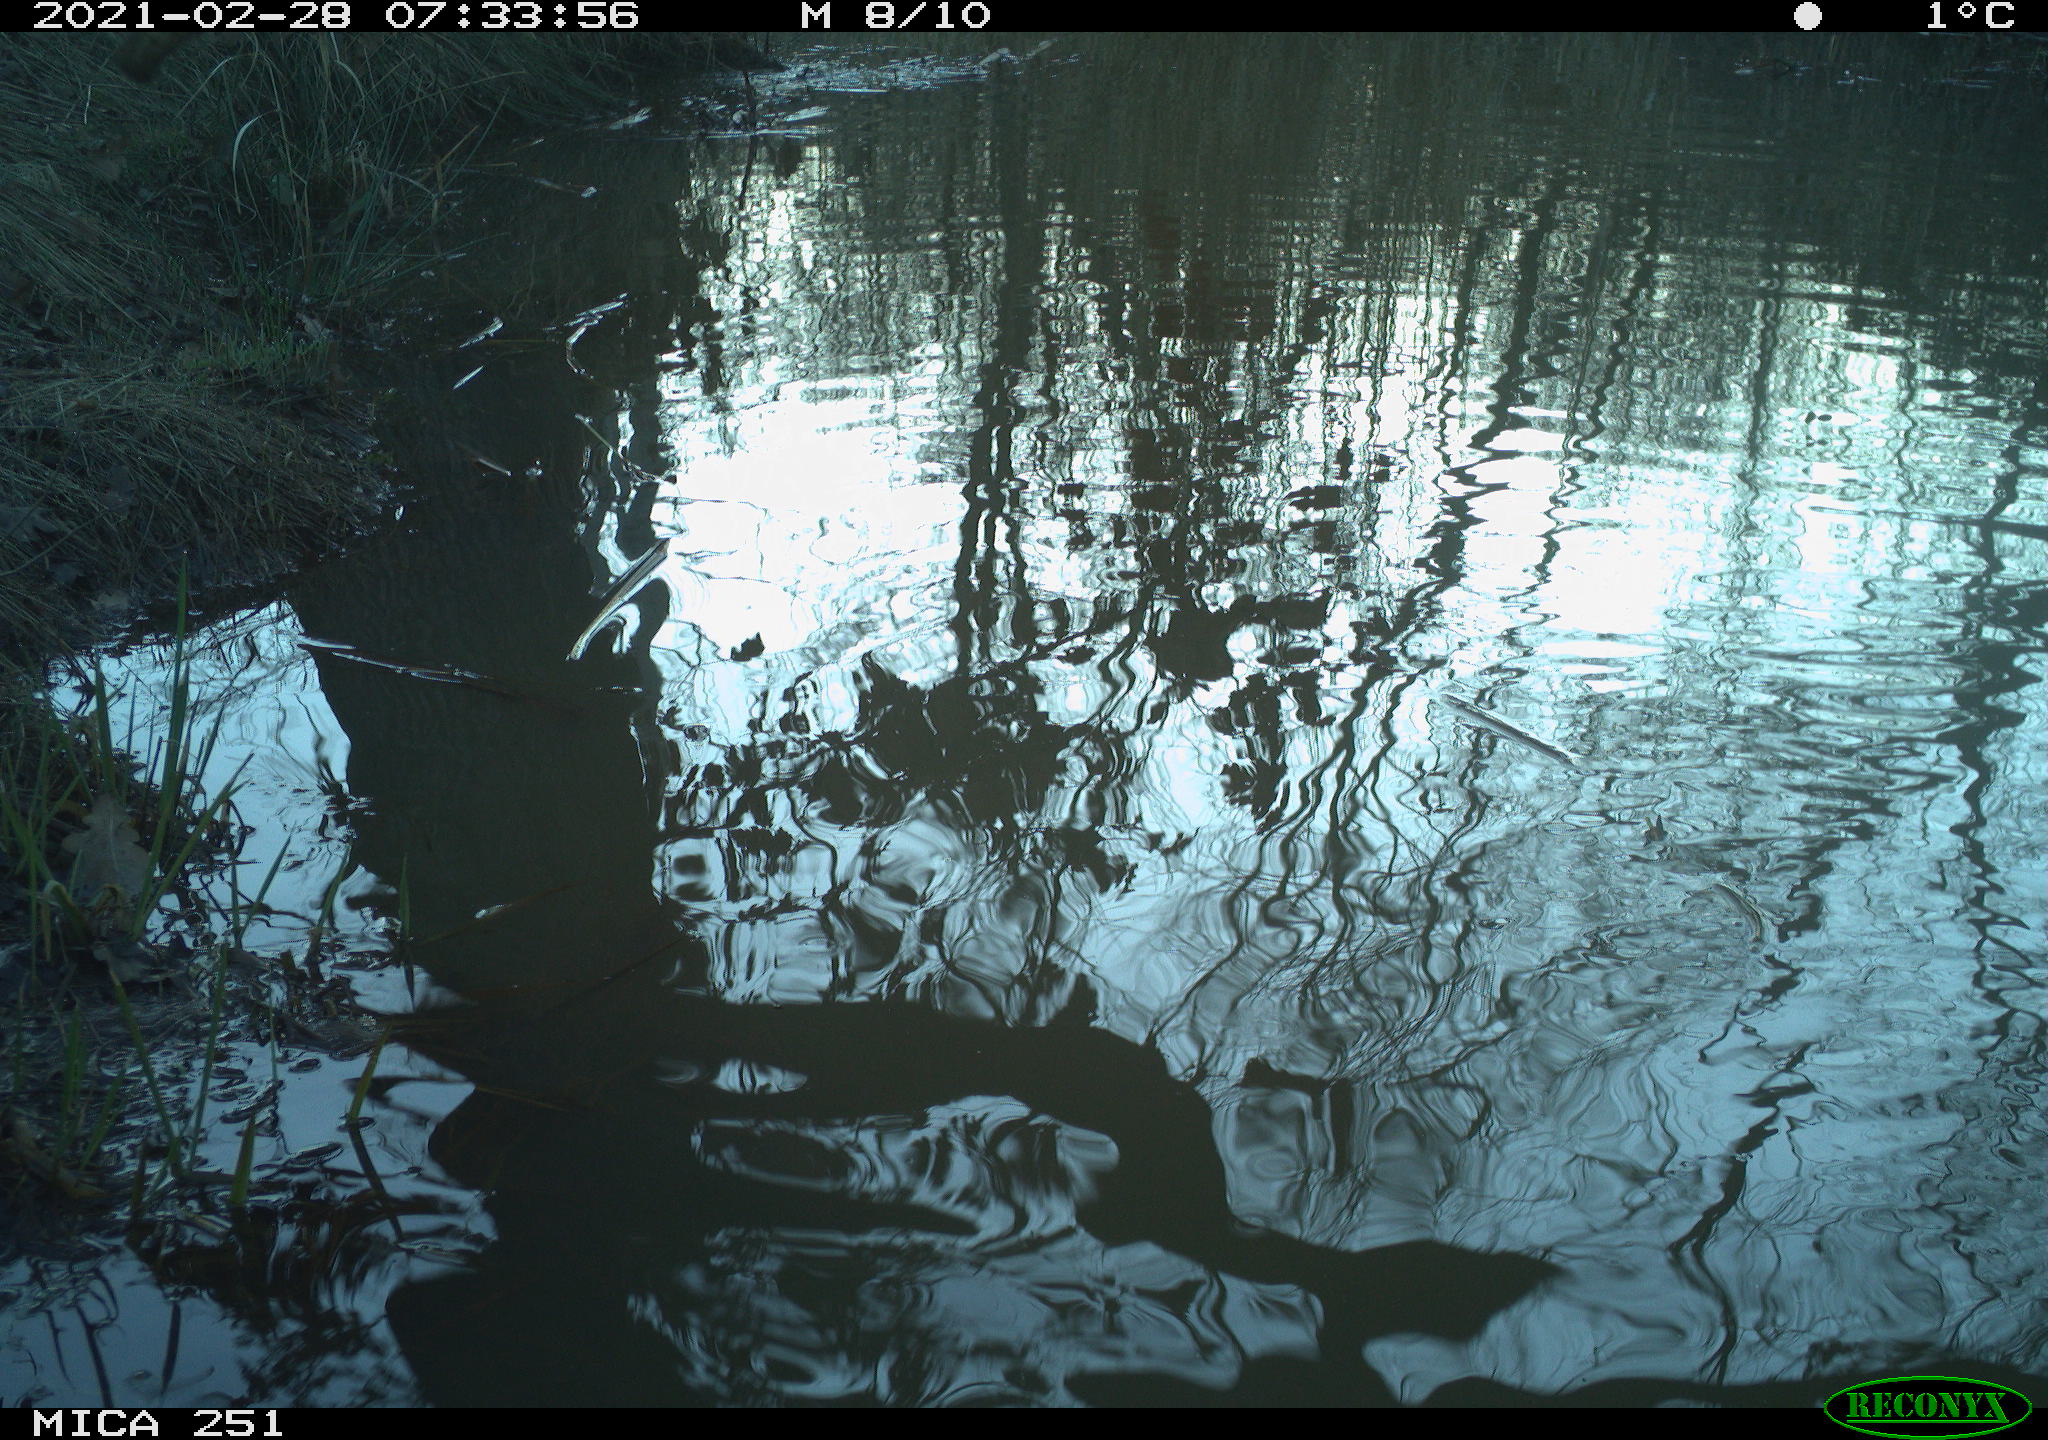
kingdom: Animalia
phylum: Chordata
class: Aves
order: Gruiformes
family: Rallidae
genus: Gallinula
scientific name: Gallinula chloropus
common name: Common moorhen
